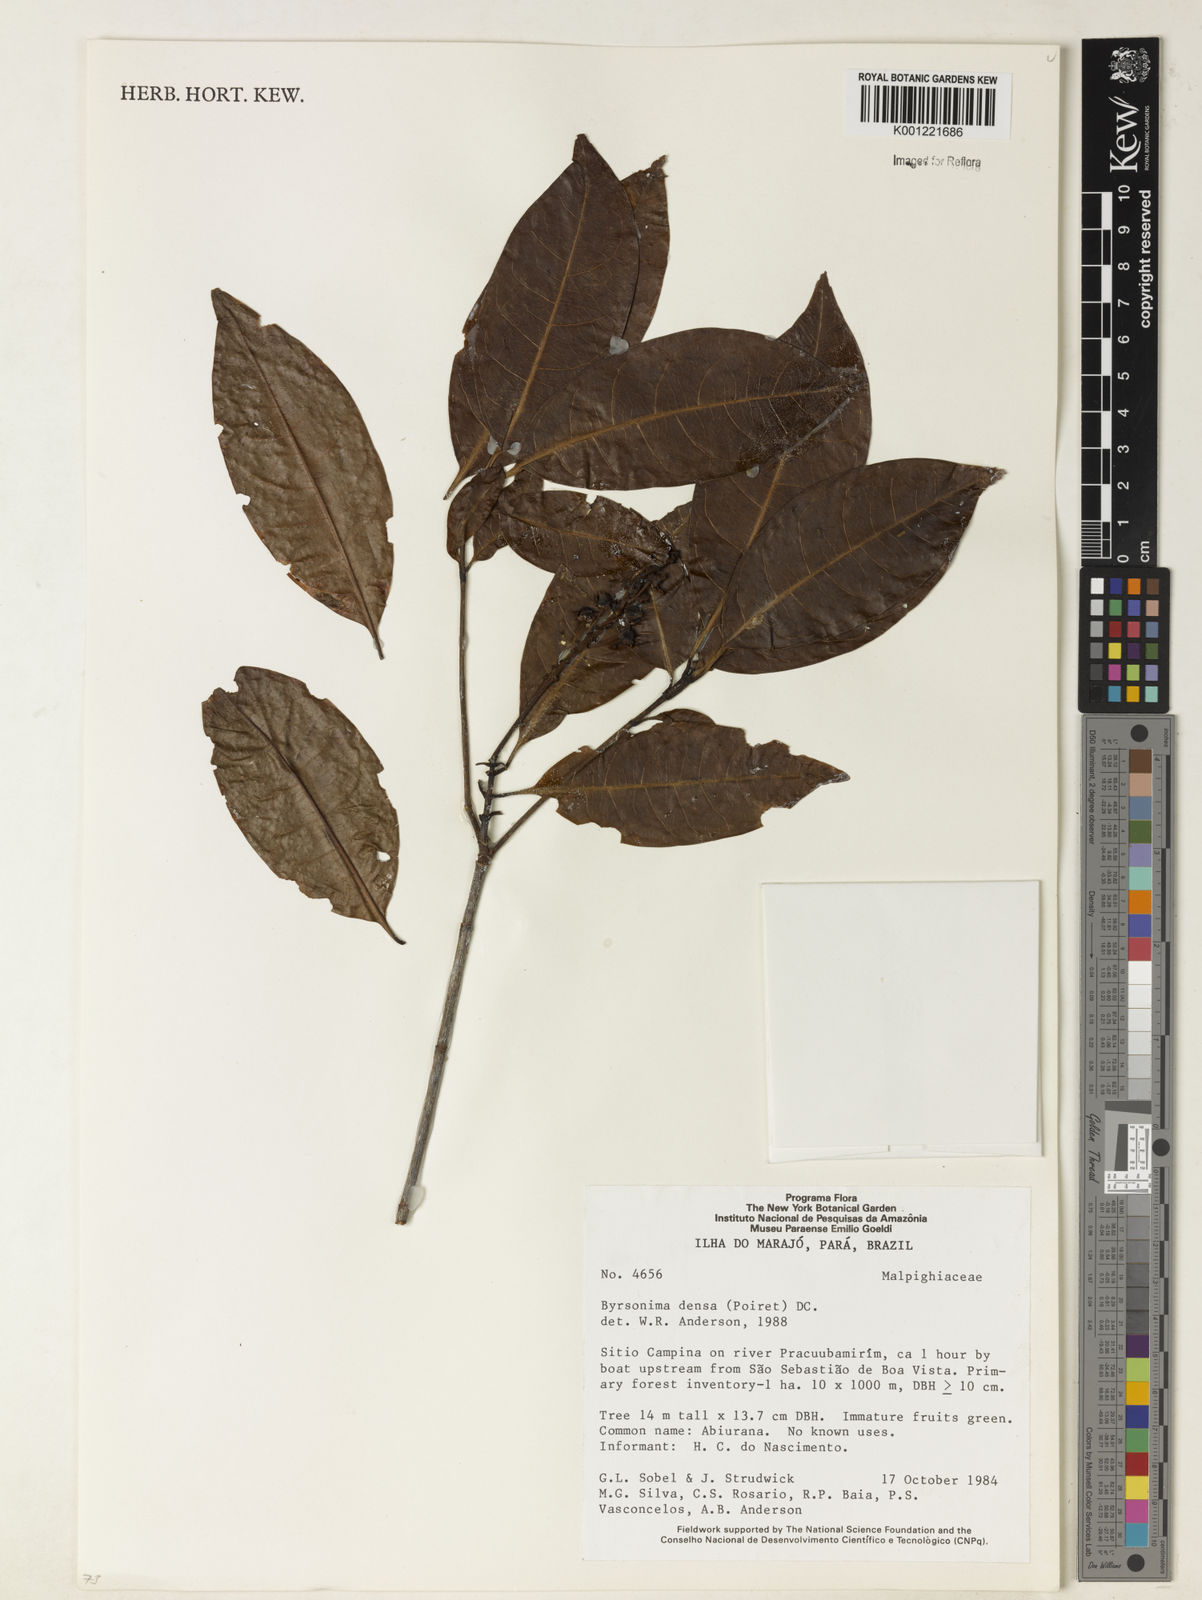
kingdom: Plantae
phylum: Tracheophyta
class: Magnoliopsida
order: Malpighiales
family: Malpighiaceae
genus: Byrsonima
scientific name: Byrsonima densa
